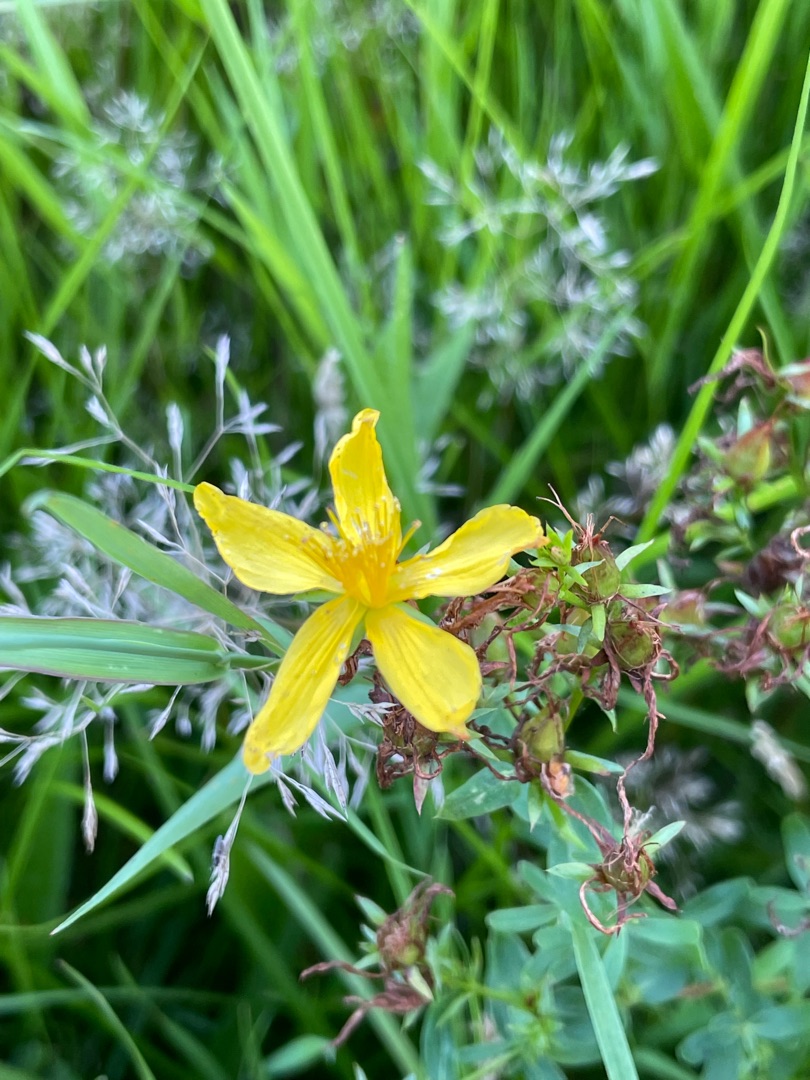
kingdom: Plantae
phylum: Tracheophyta
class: Magnoliopsida
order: Malpighiales
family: Hypericaceae
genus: Hypericum
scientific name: Hypericum perforatum
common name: Prikbladet perikon
